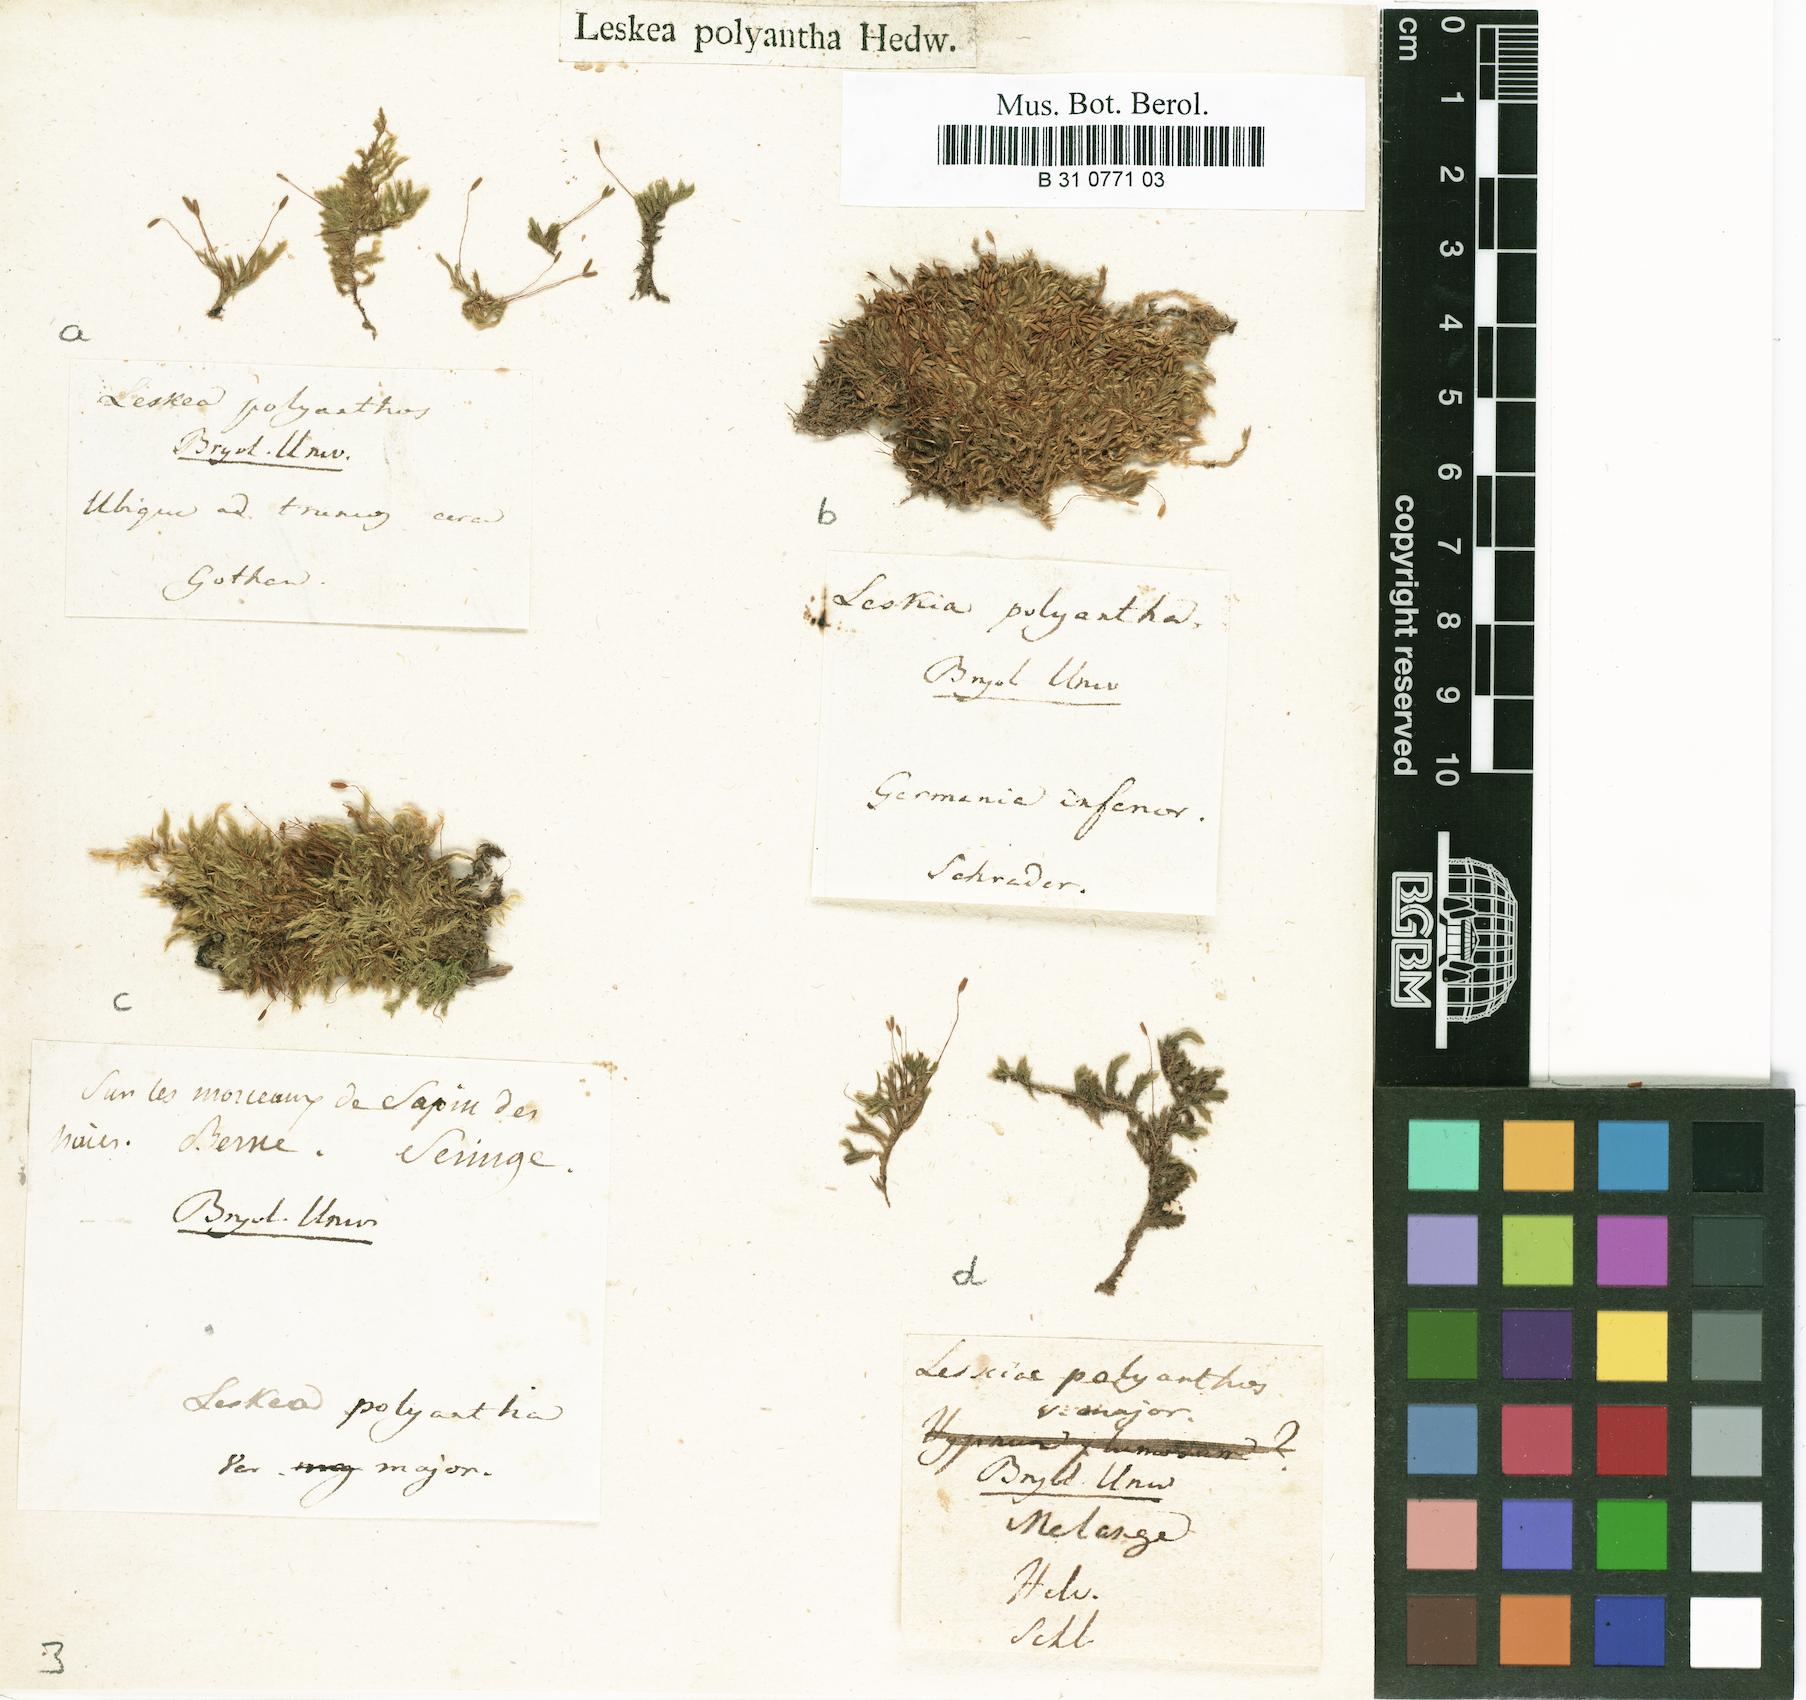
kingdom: Plantae
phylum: Bryophyta
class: Bryopsida
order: Hypnales
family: Pylaisiaceae
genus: Pylaisia
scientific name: Pylaisia polyantha
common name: Many-flowered leskea
